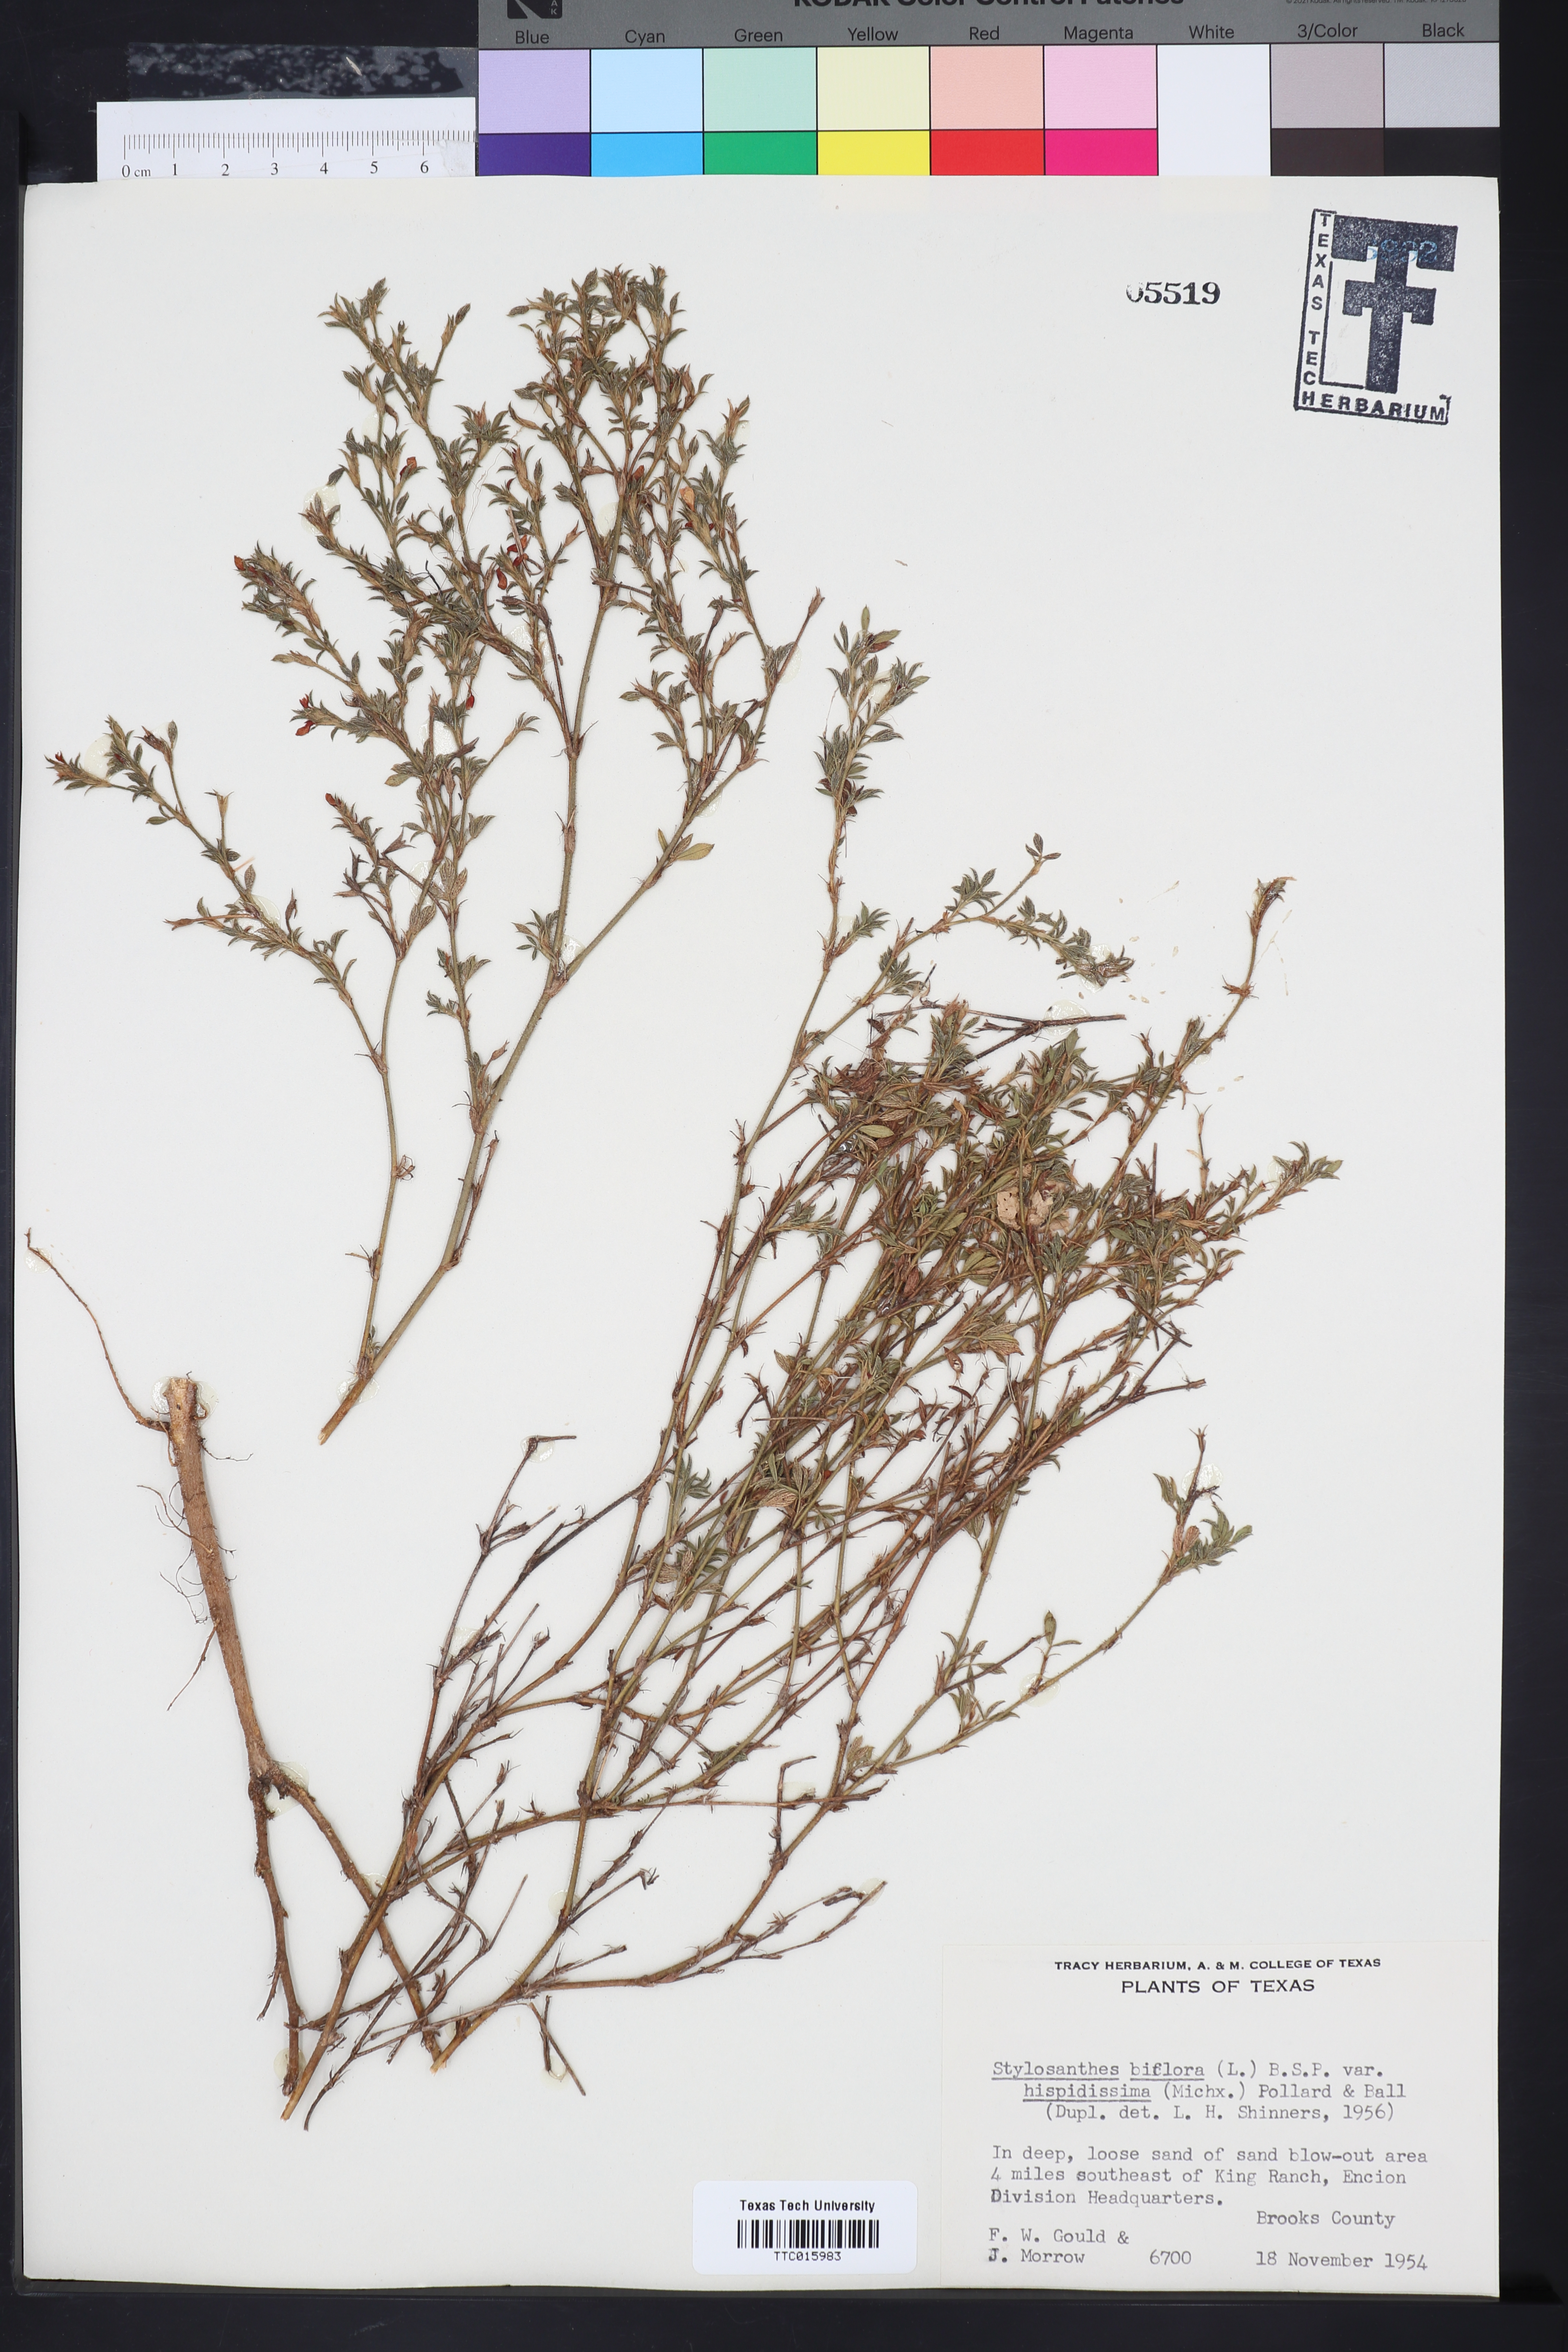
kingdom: Plantae
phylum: Tracheophyta
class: Magnoliopsida
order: Fabales
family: Fabaceae
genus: Stylosanthes
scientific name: Stylosanthes biflora
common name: Two-flower pencil-flower
